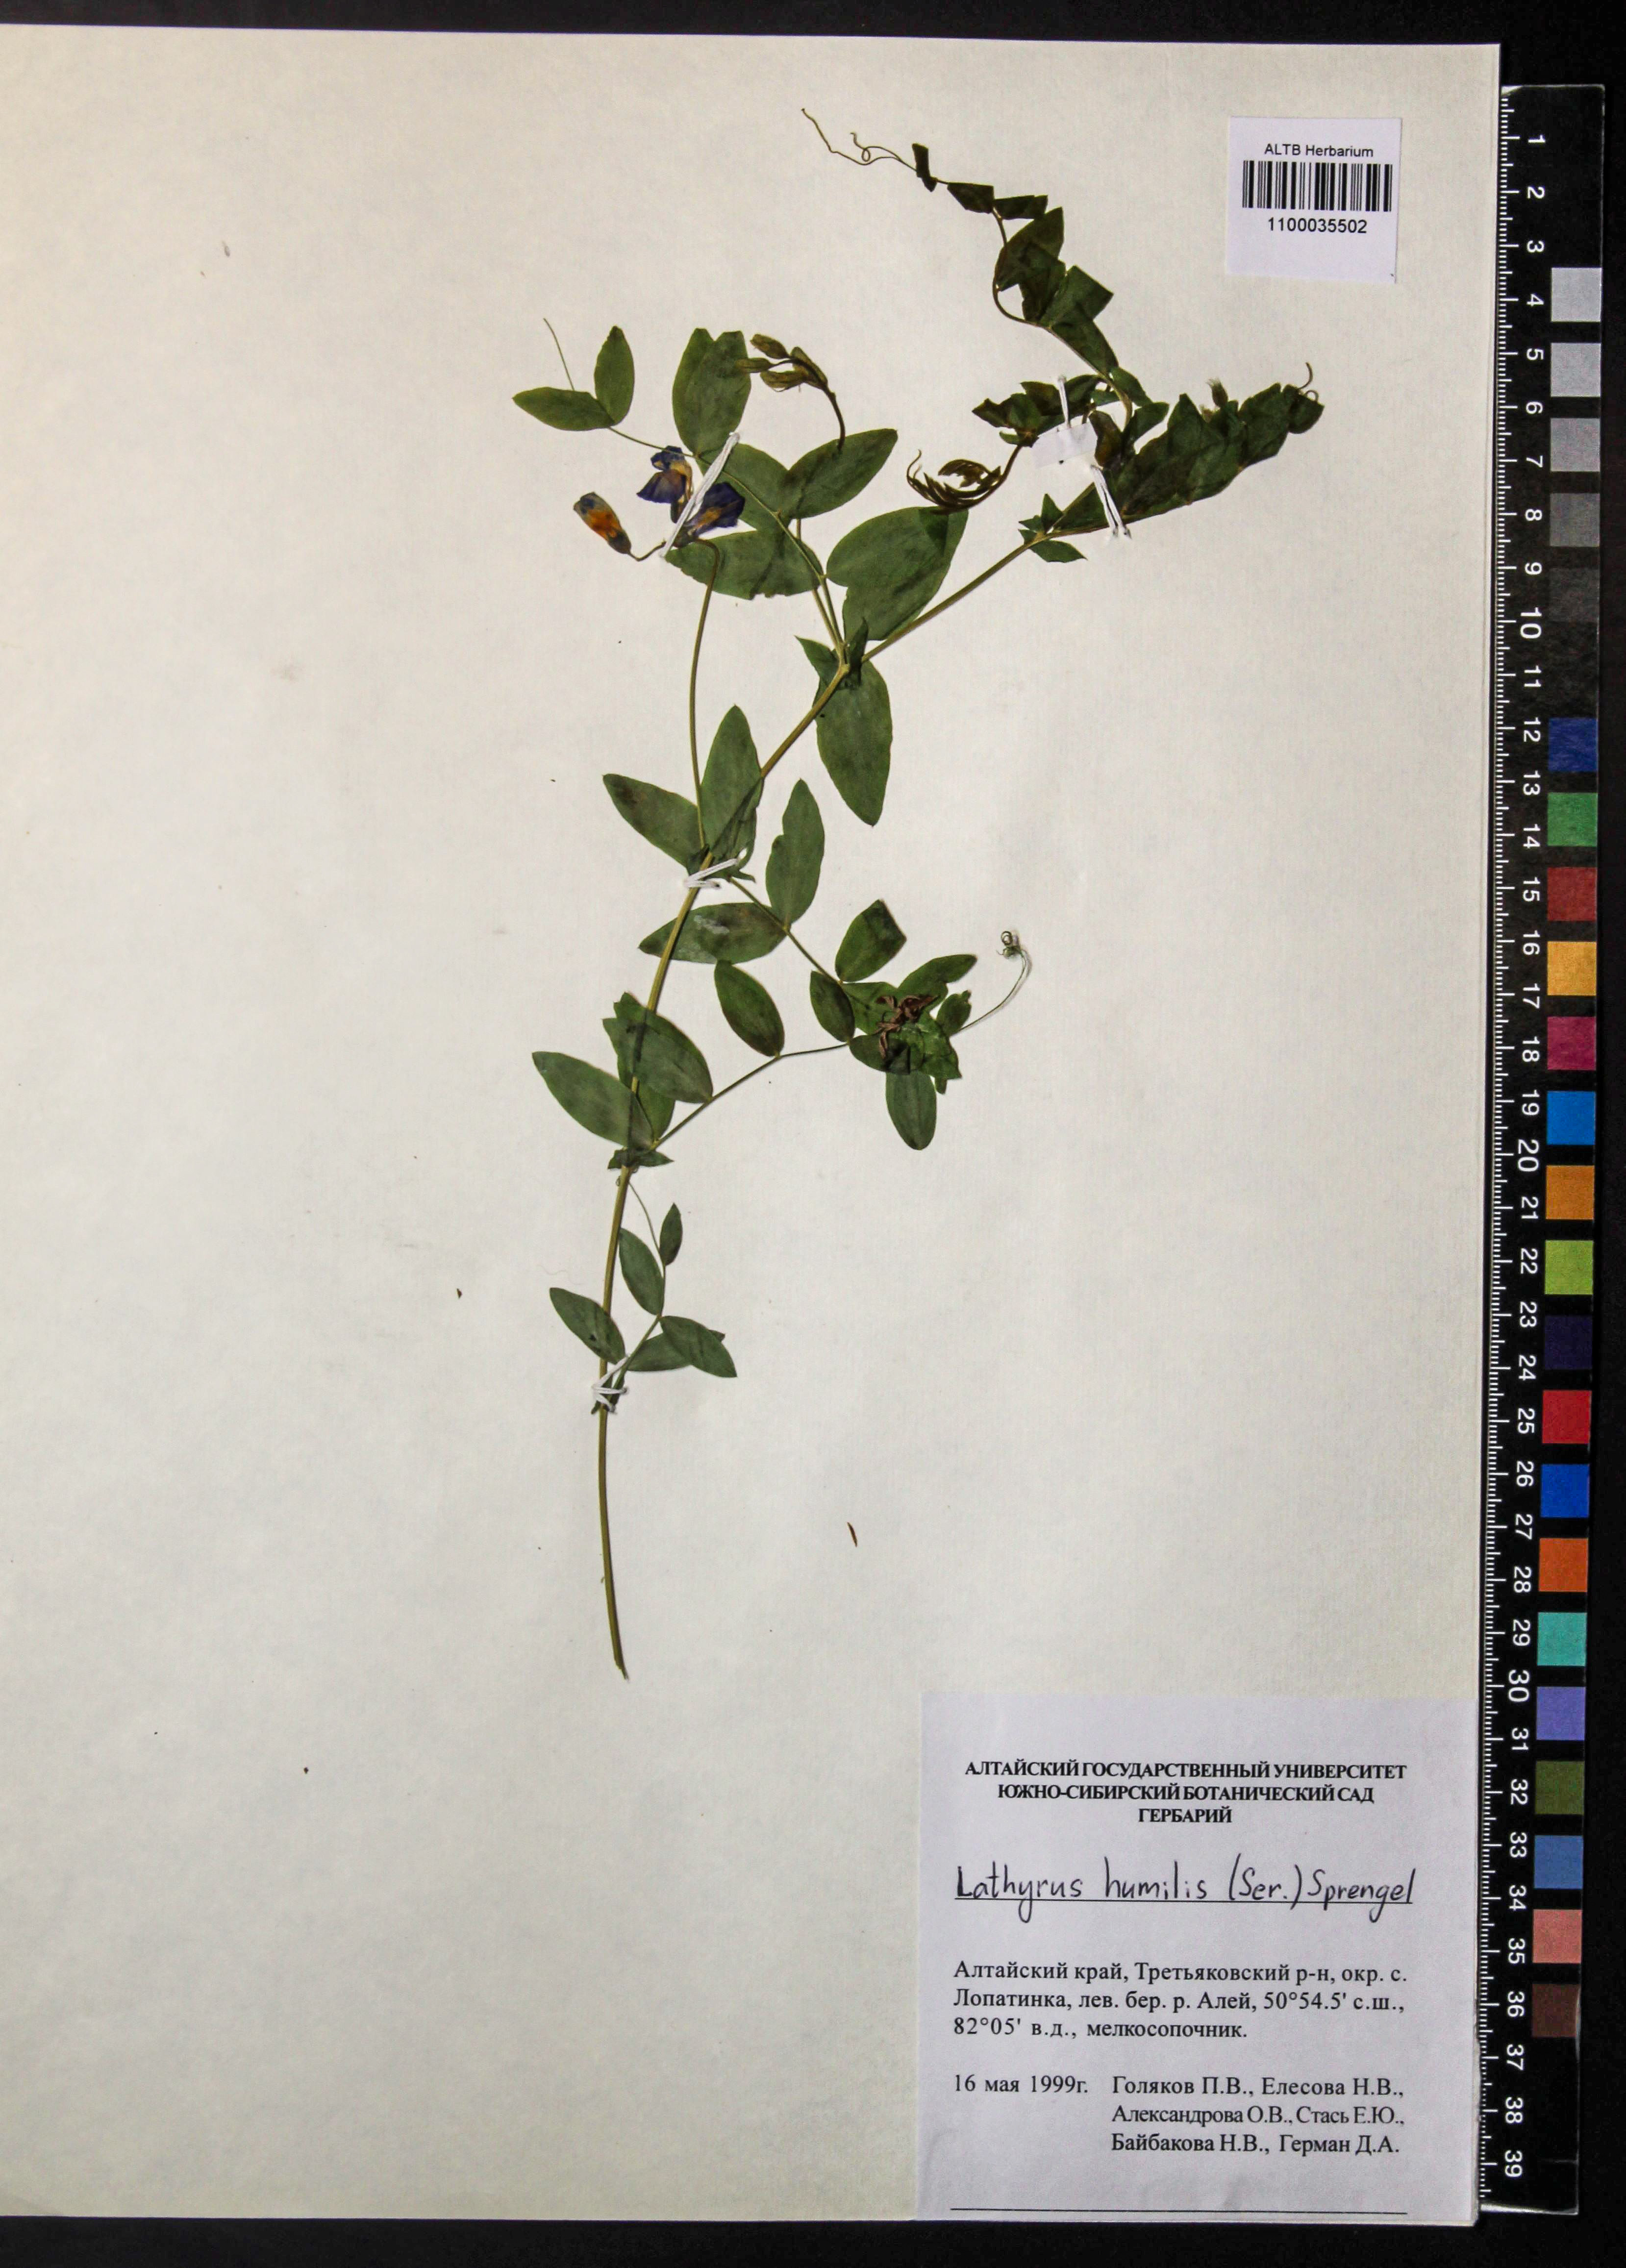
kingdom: Plantae
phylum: Tracheophyta
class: Magnoliopsida
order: Fabales
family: Fabaceae
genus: Lathyrus
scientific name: Lathyrus humilis
